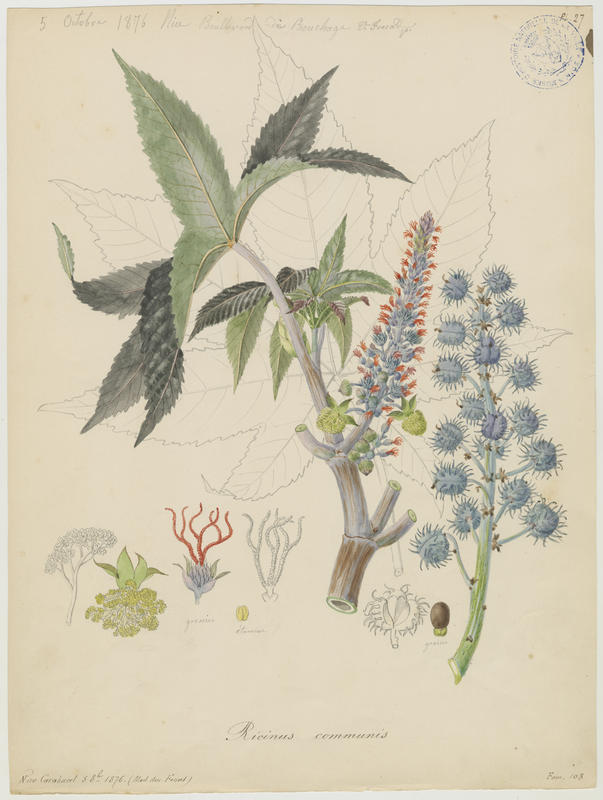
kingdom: Plantae
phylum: Tracheophyta
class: Magnoliopsida
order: Malpighiales
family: Euphorbiaceae
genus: Ricinus
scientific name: Ricinus communis
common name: Castor-oil-plant
